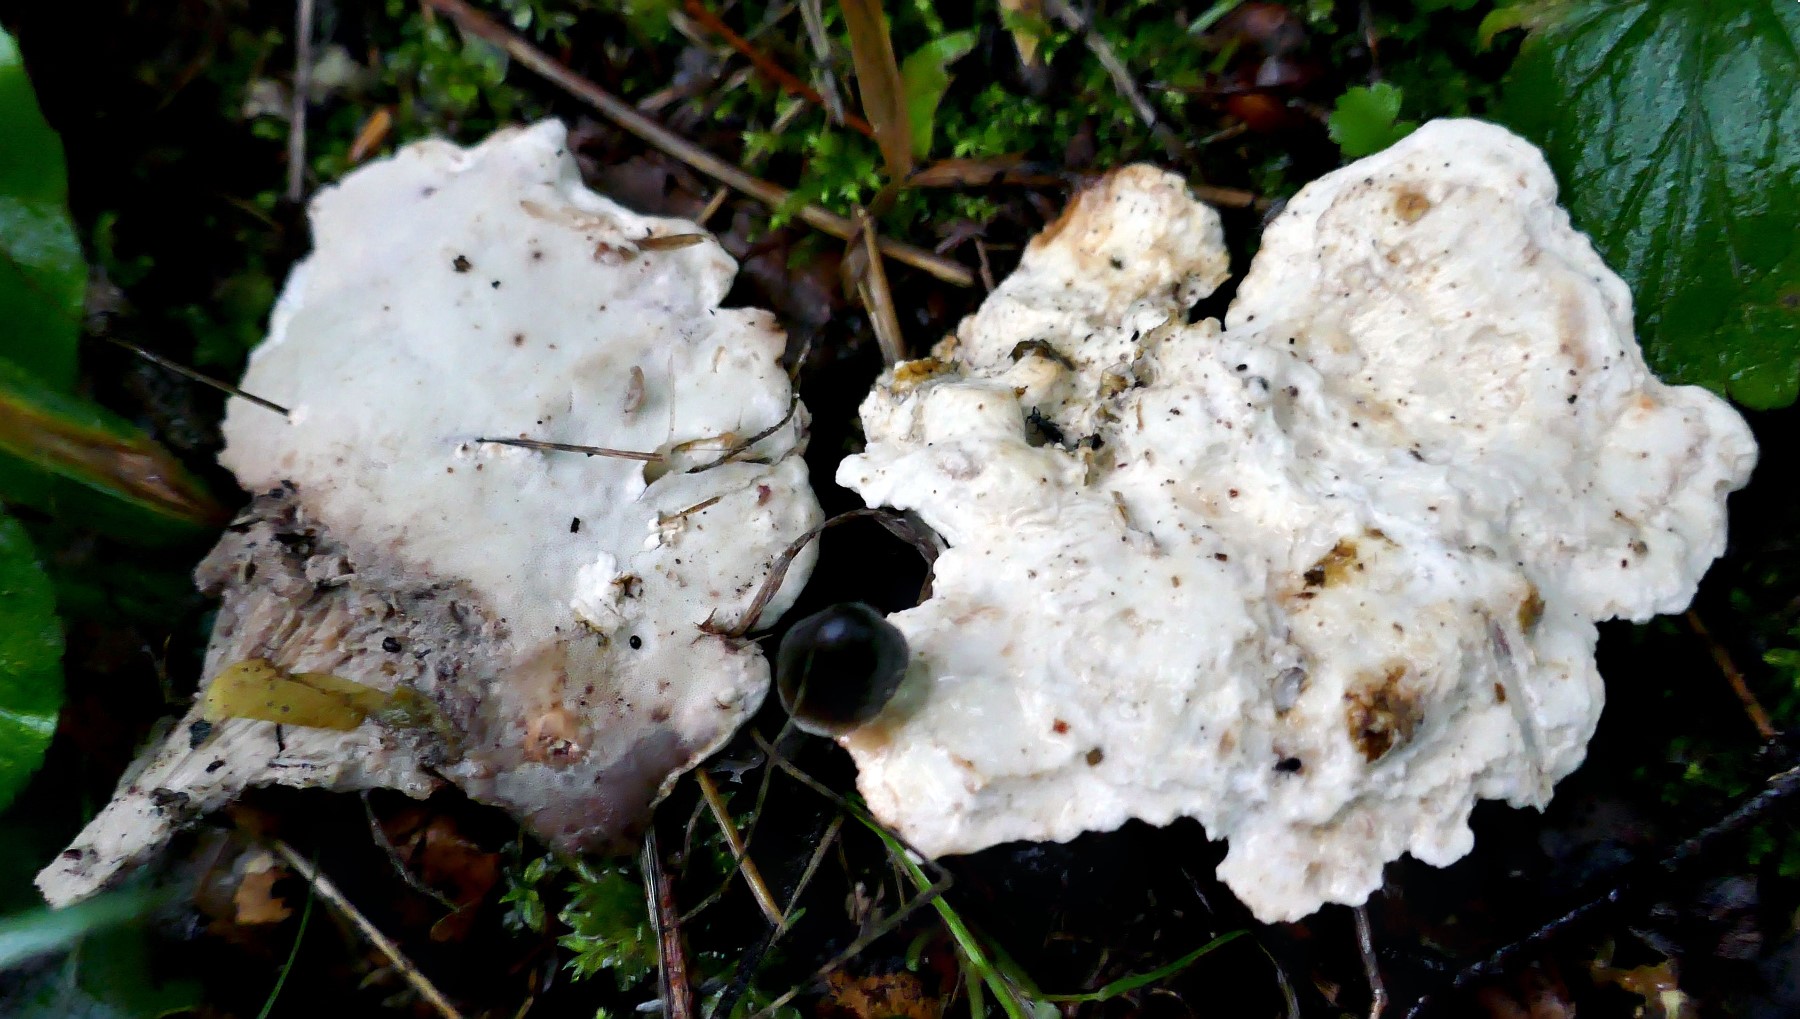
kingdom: Fungi
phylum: Basidiomycota
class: Agaricomycetes
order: Polyporales
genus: Calcipostia
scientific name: Calcipostia guttulata
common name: dråbe-kødporesvamp
